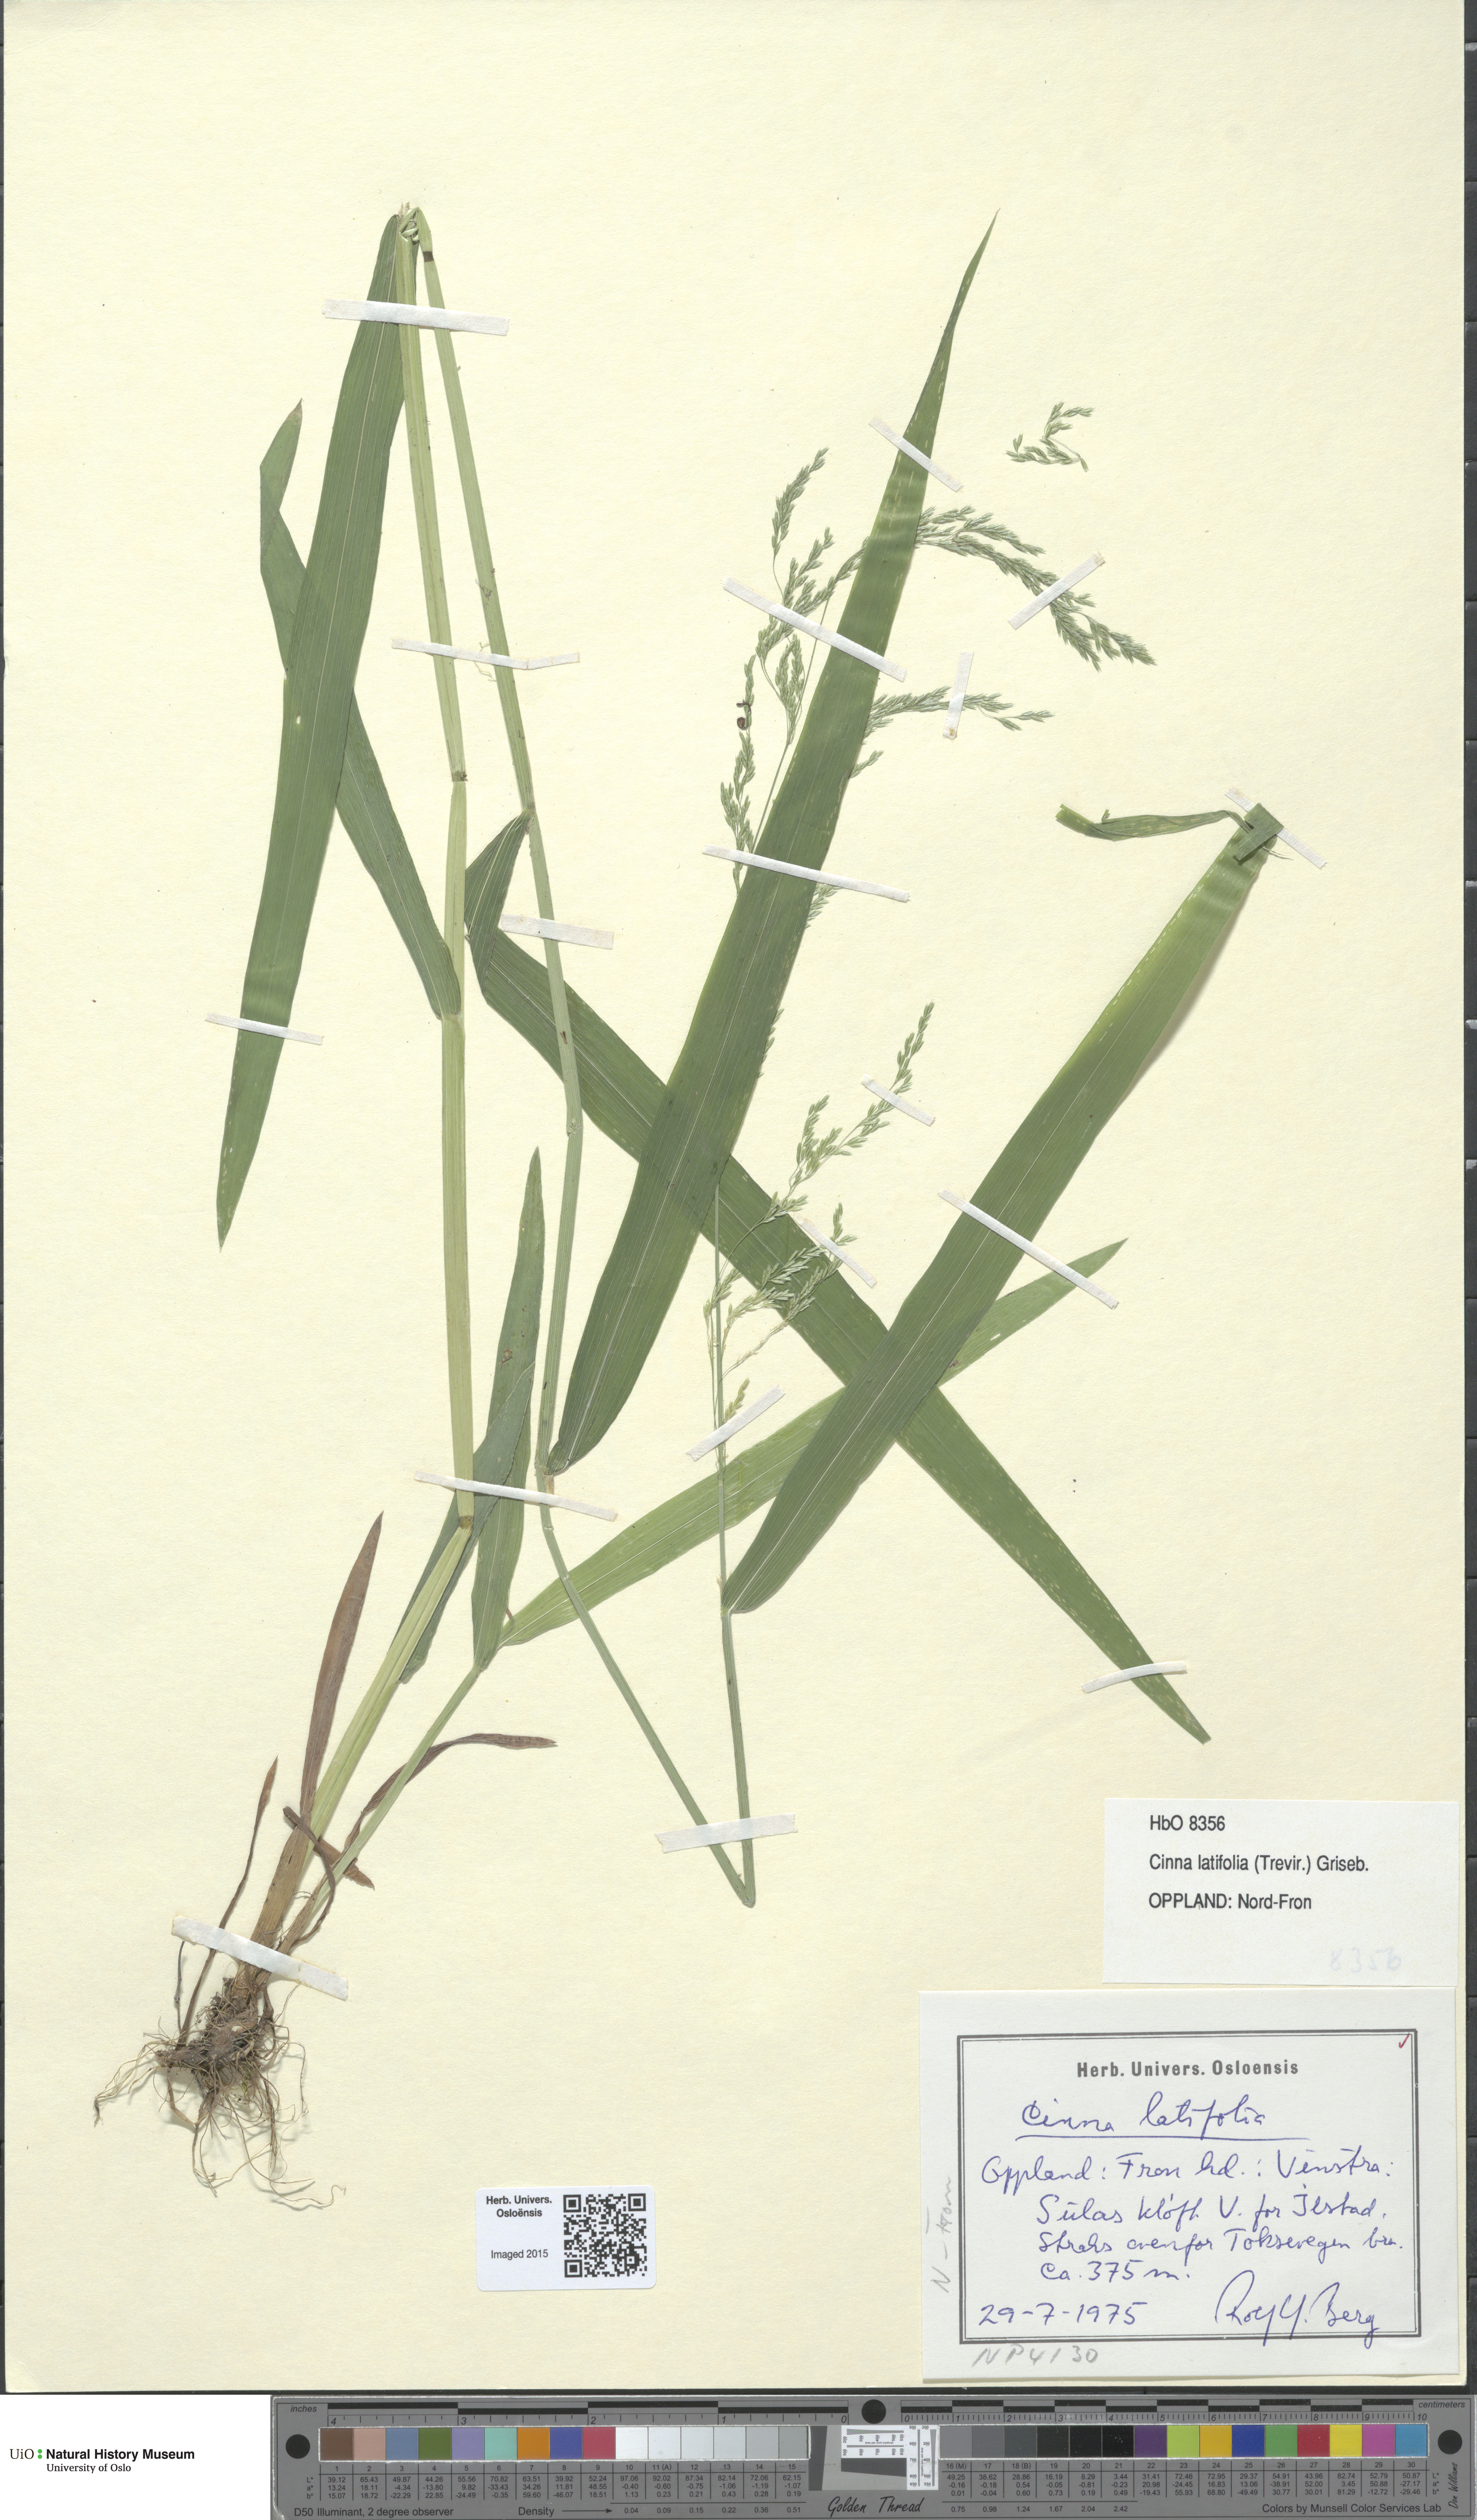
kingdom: Plantae
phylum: Tracheophyta
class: Liliopsida
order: Poales
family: Poaceae
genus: Cinna
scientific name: Cinna latifolia
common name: Drooping woodreed
